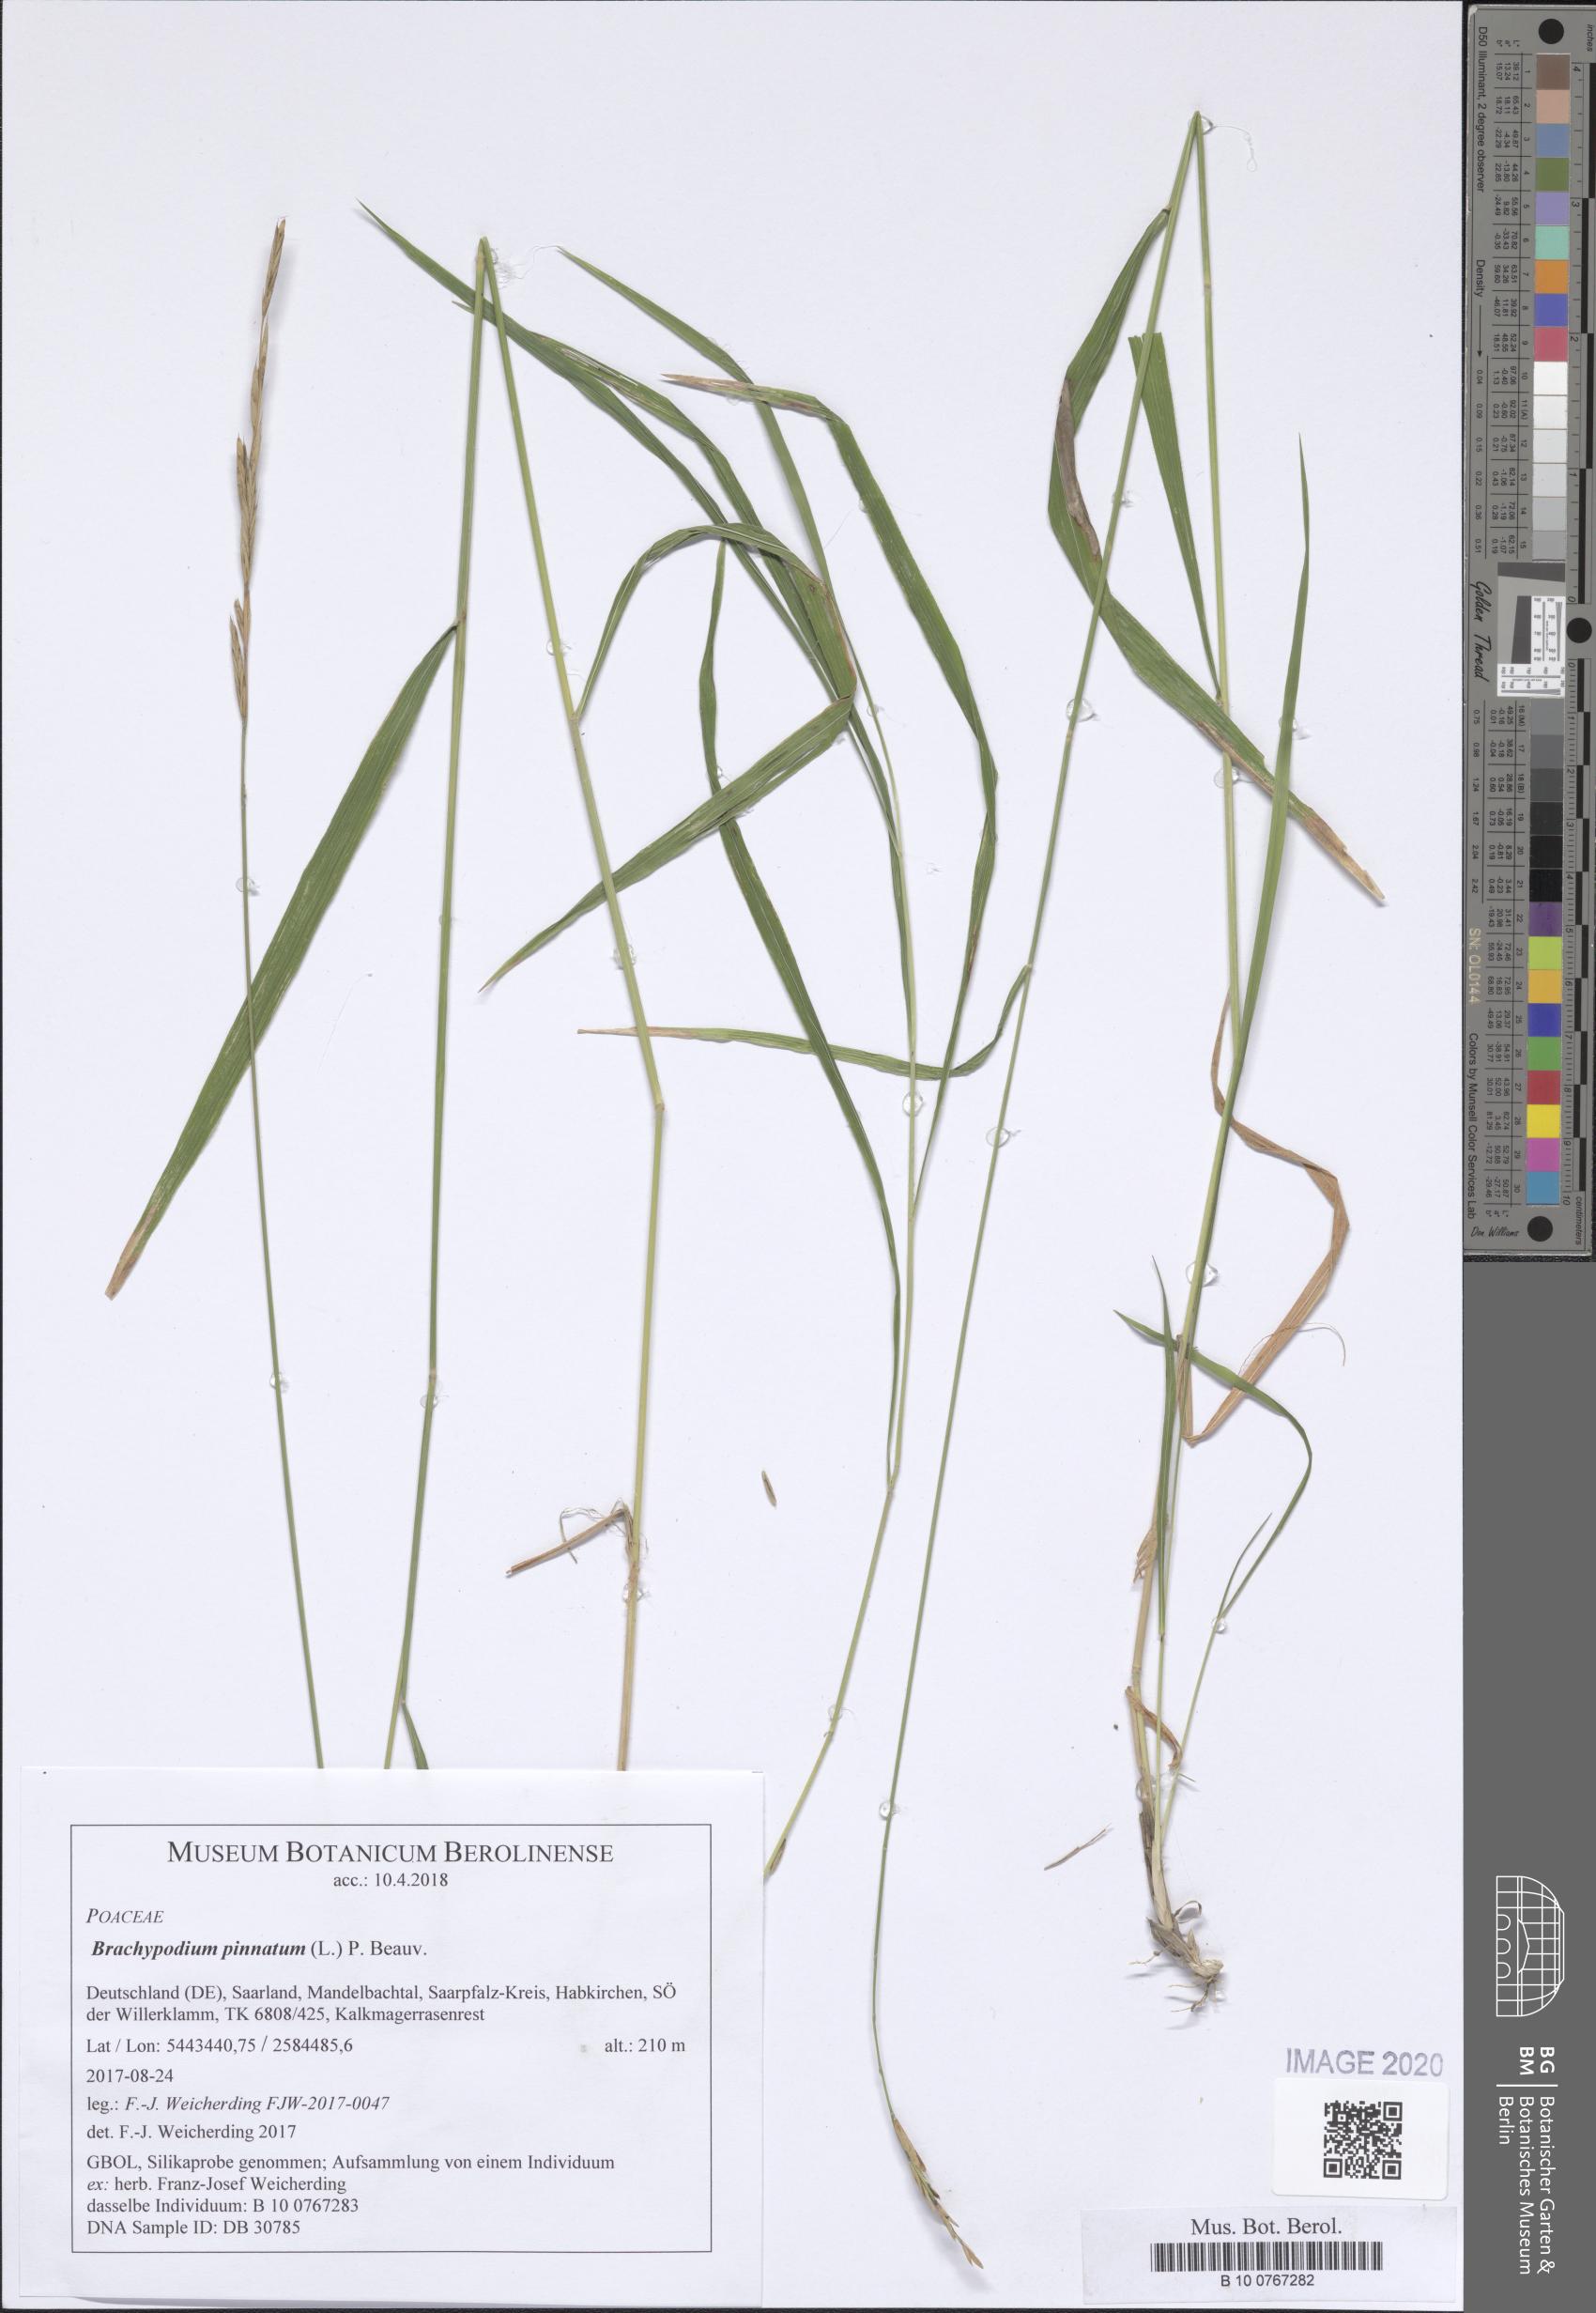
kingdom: Plantae
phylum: Tracheophyta
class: Liliopsida
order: Poales
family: Poaceae
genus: Brachypodium
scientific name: Brachypodium pinnatum
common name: Tor grass
